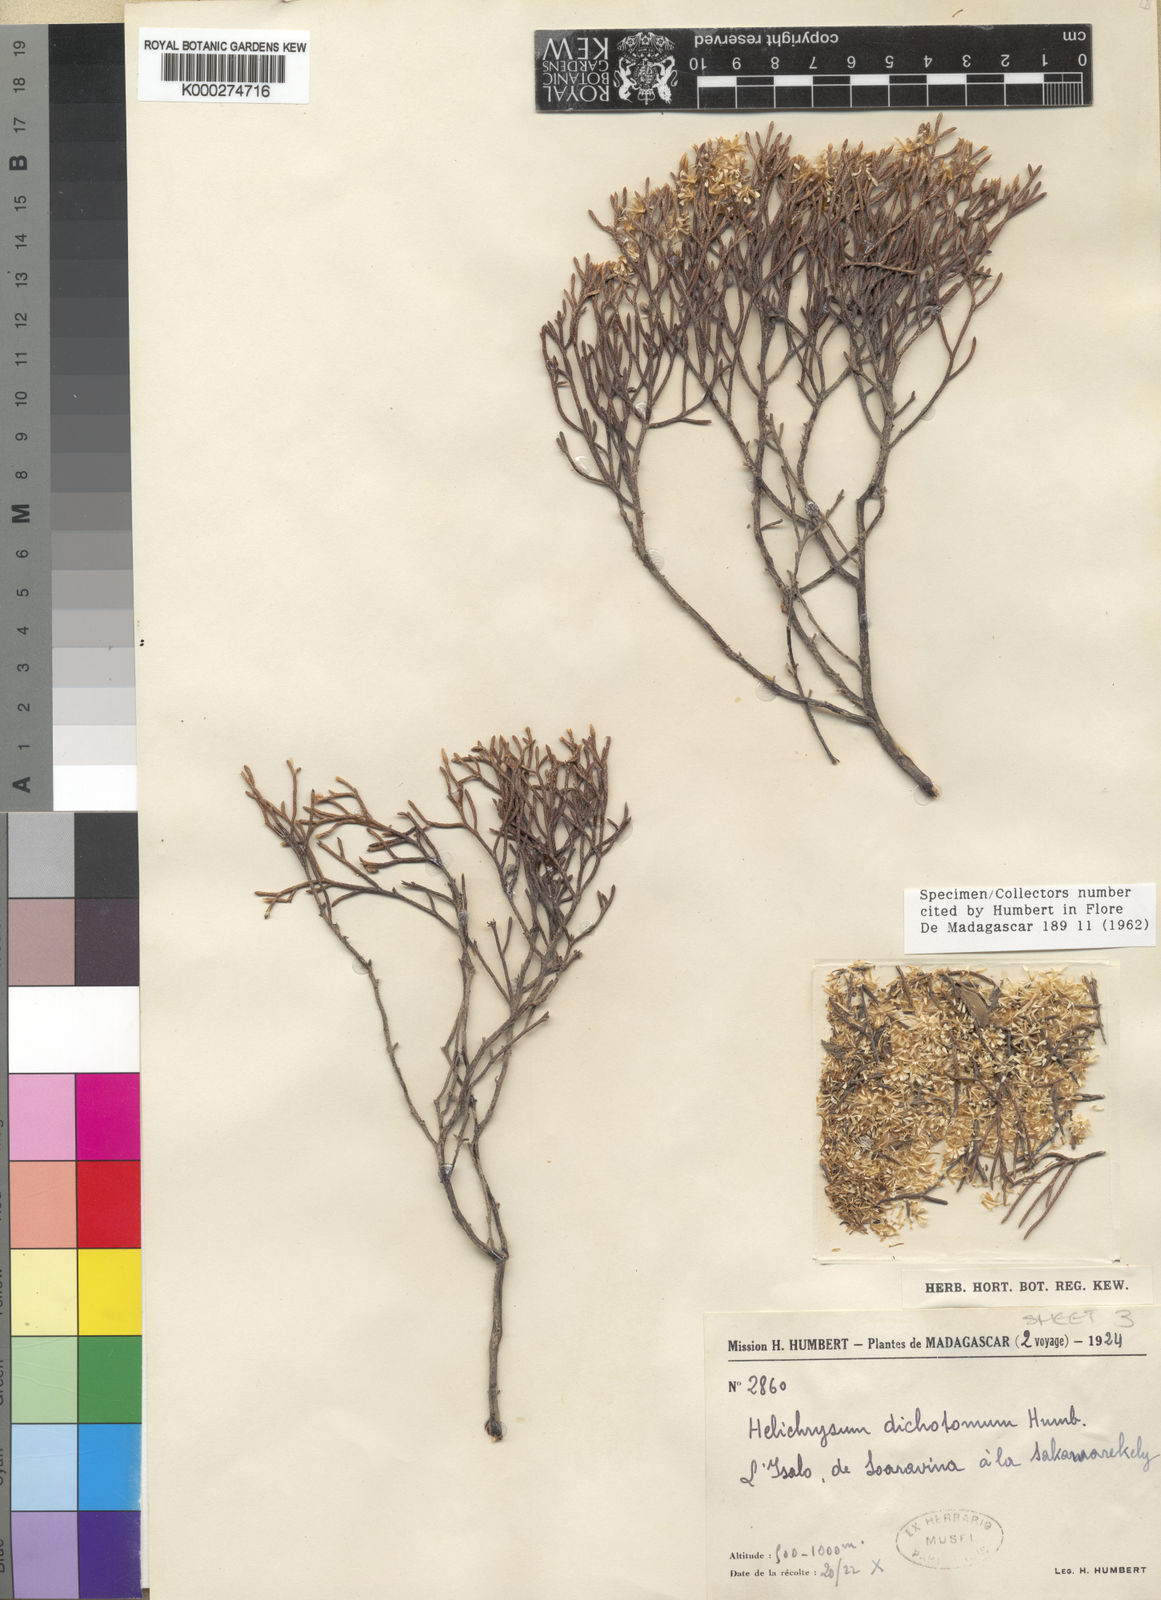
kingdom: Plantae
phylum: Tracheophyta
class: Magnoliopsida
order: Asterales
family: Asteraceae
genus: Helichrysum
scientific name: Helichrysum dichotomum
